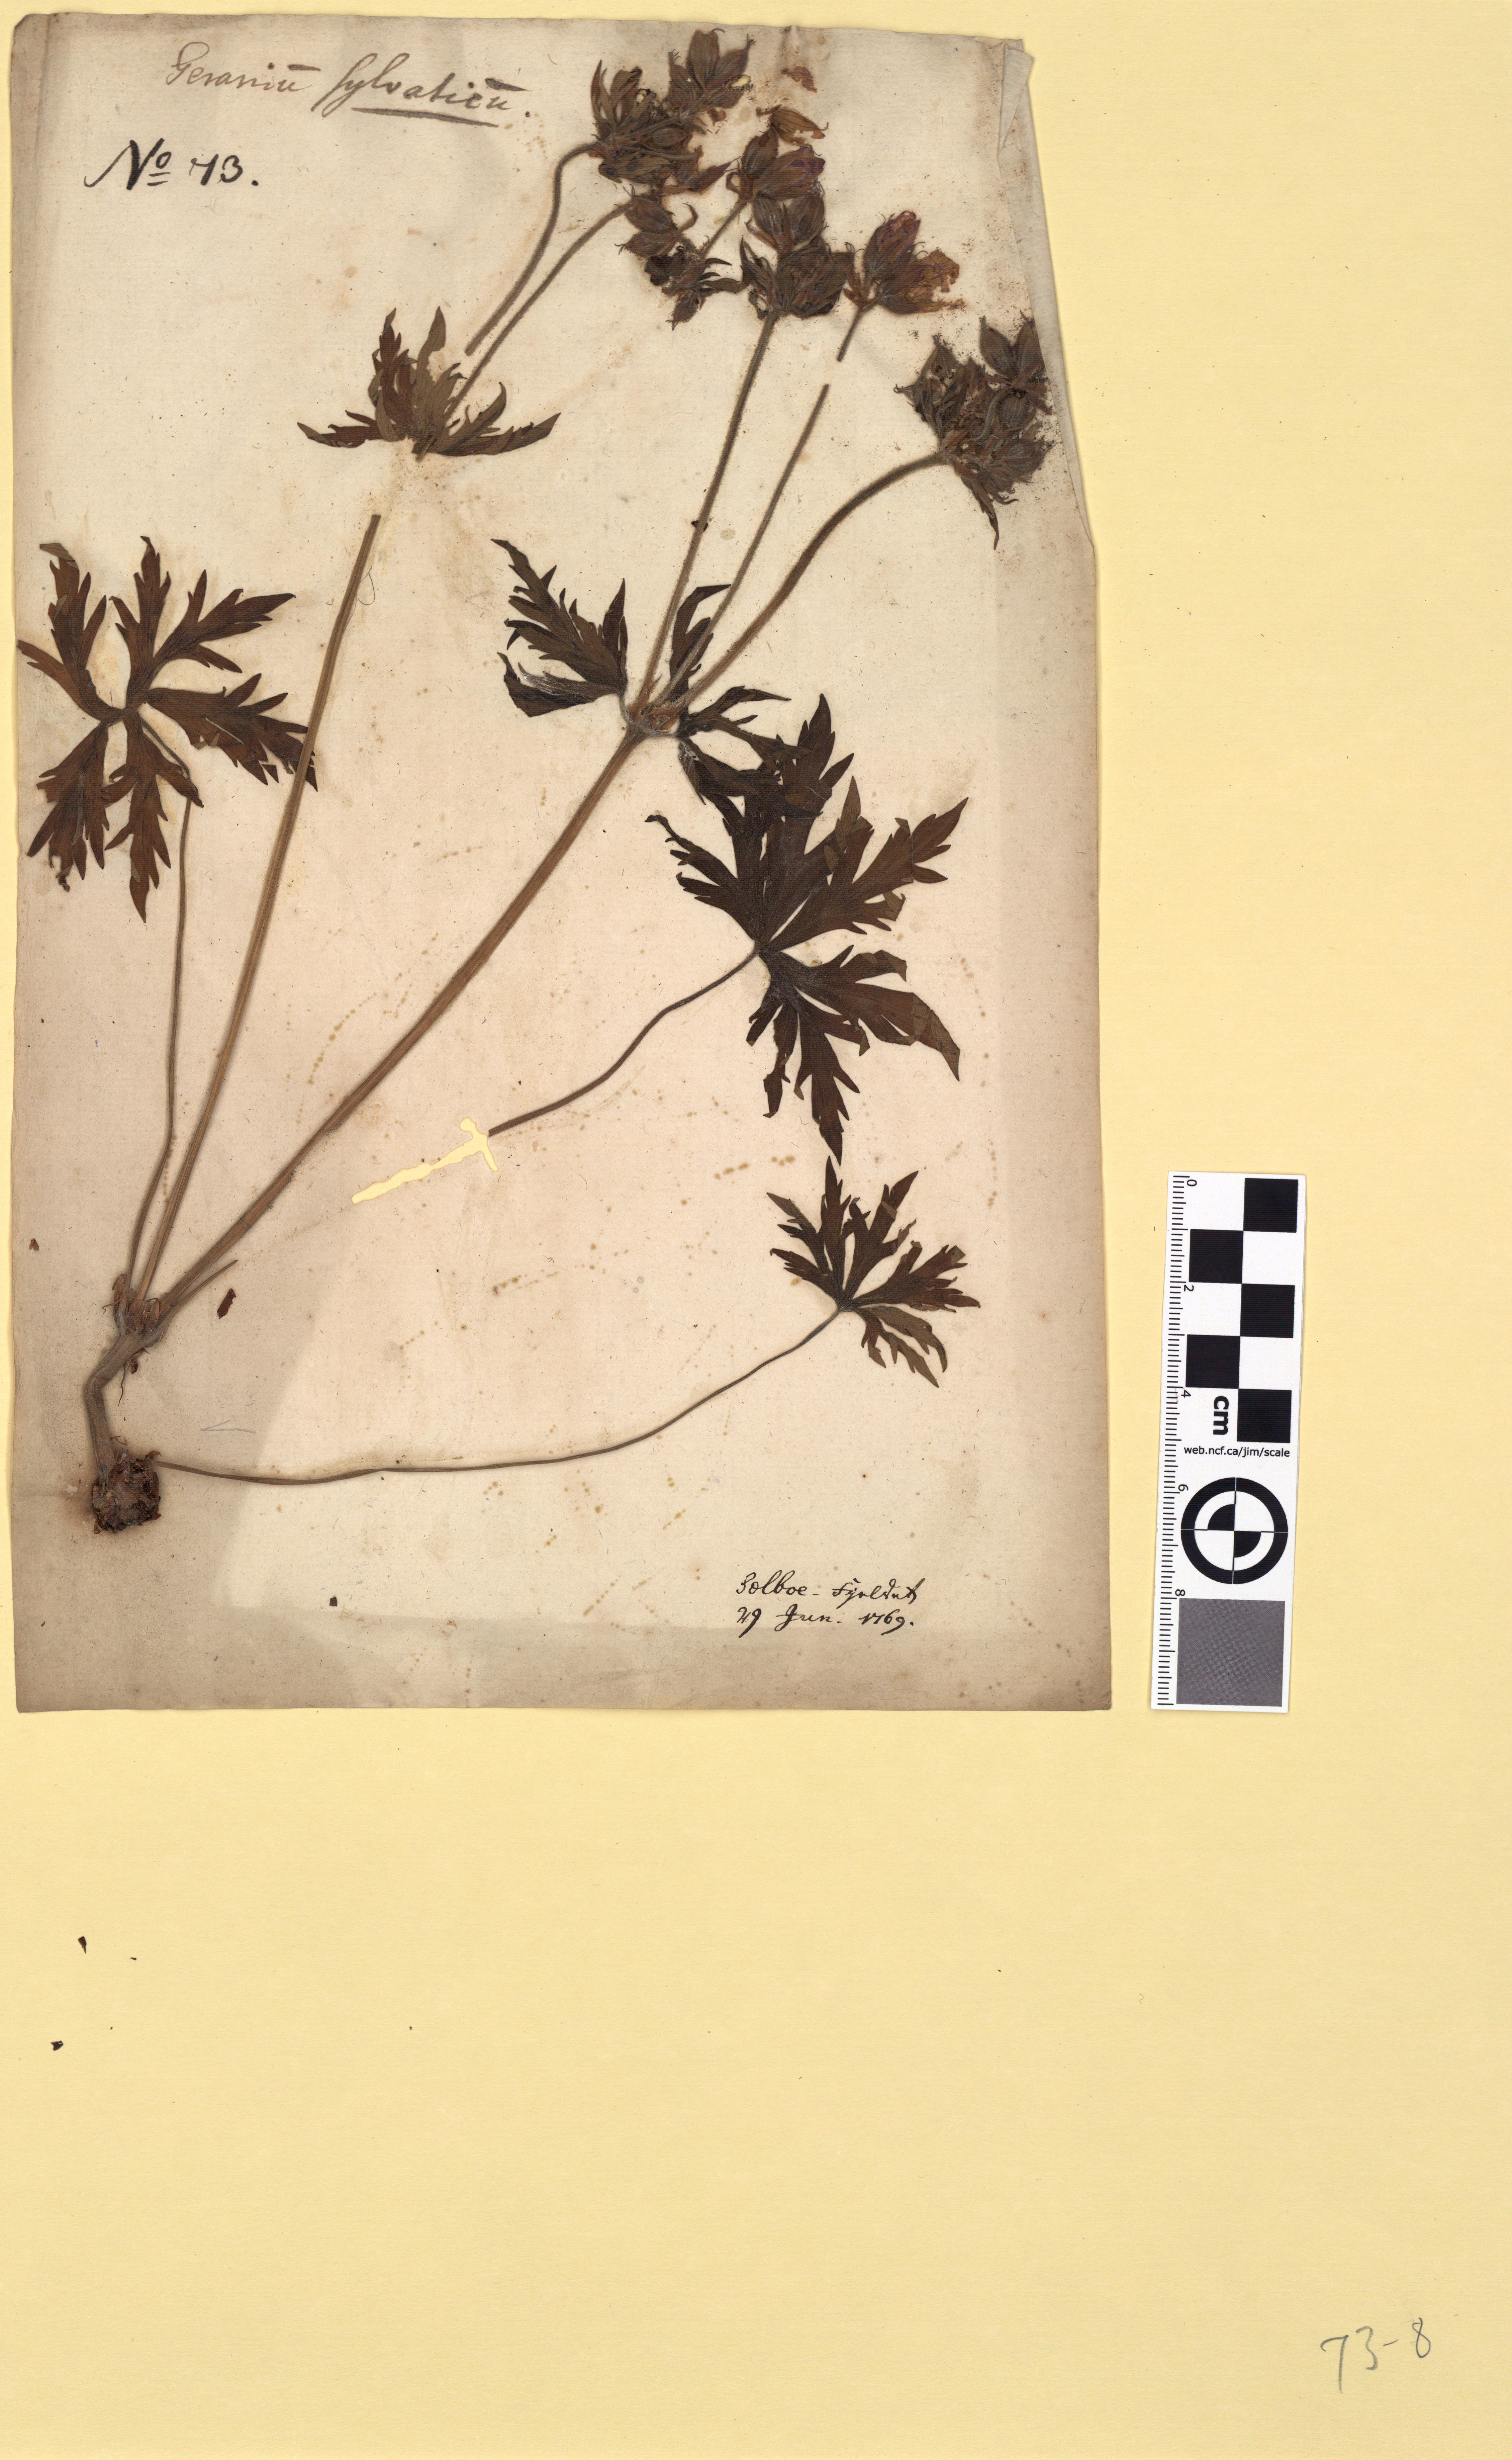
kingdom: Plantae
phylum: Tracheophyta
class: Magnoliopsida
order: Geraniales
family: Geraniaceae
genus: Geranium
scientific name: Geranium pratense
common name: Meadow crane's-bill
